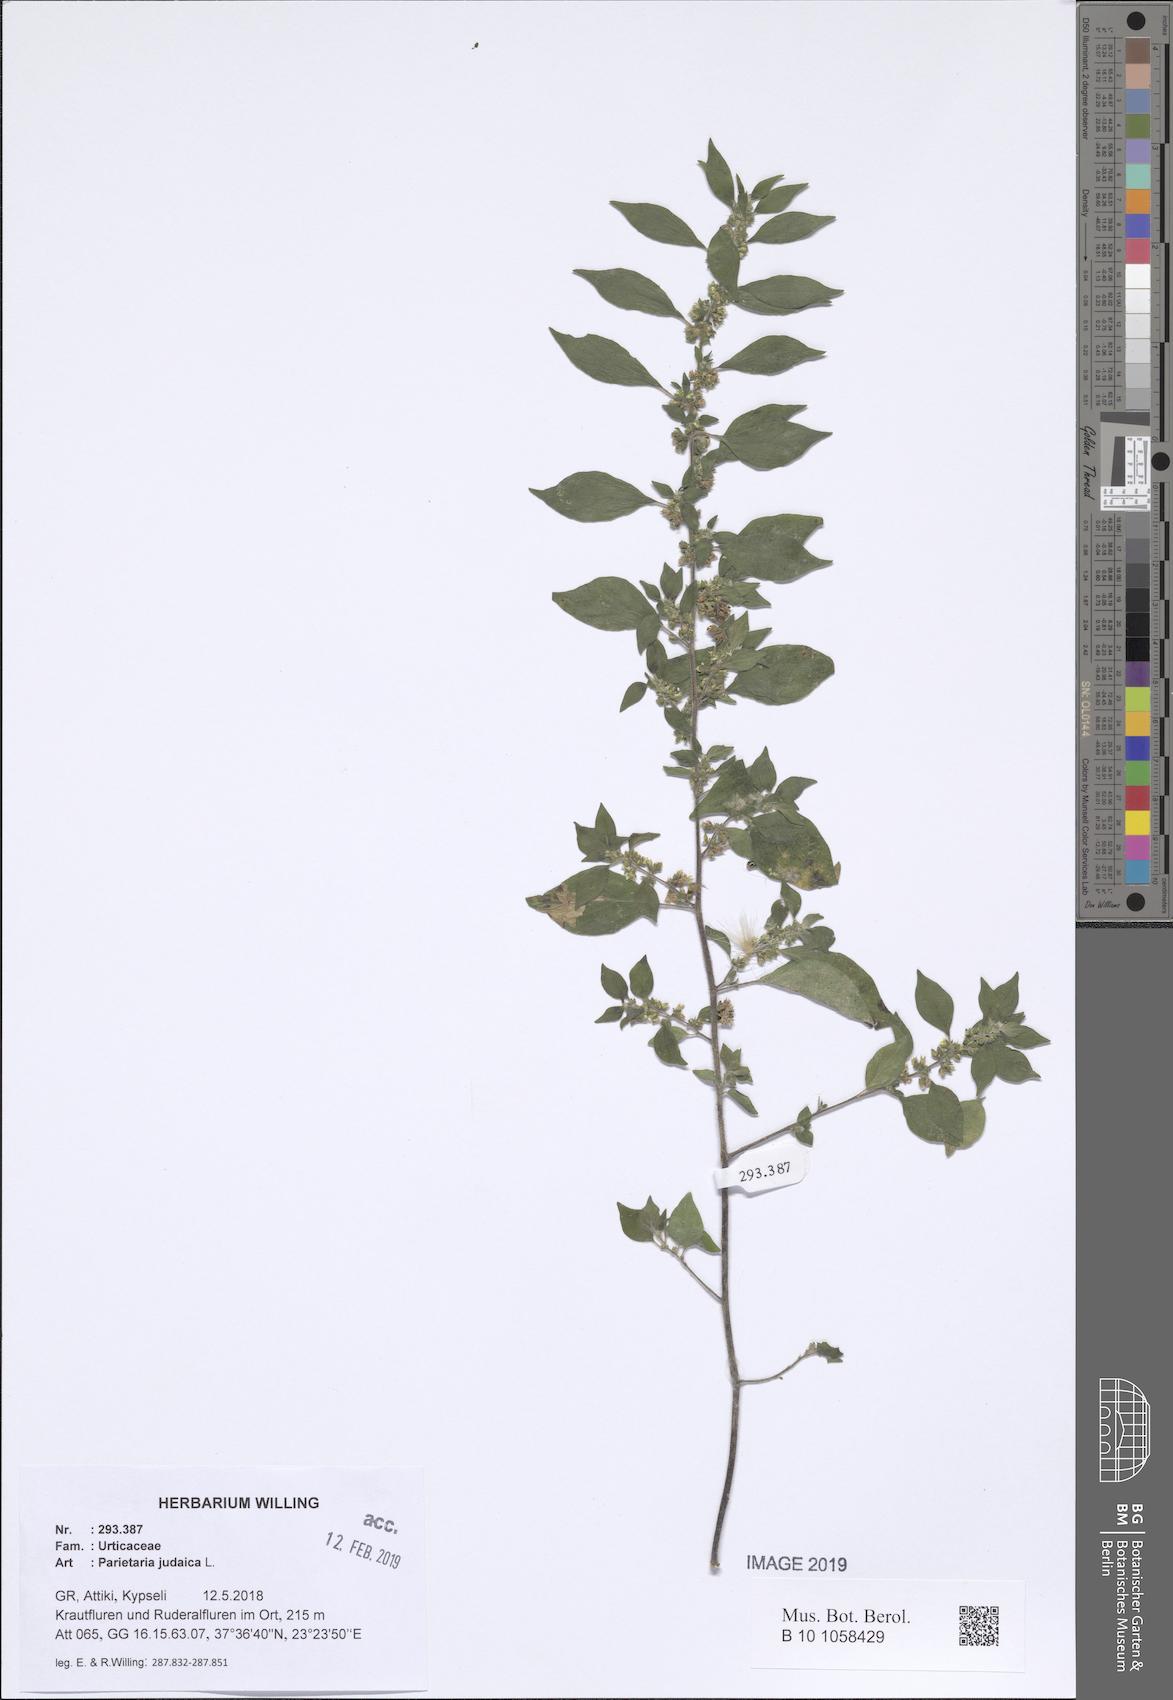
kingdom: Plantae
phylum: Tracheophyta
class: Magnoliopsida
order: Rosales
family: Urticaceae
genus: Parietaria
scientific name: Parietaria judaica
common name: Pellitory-of-the-wall
